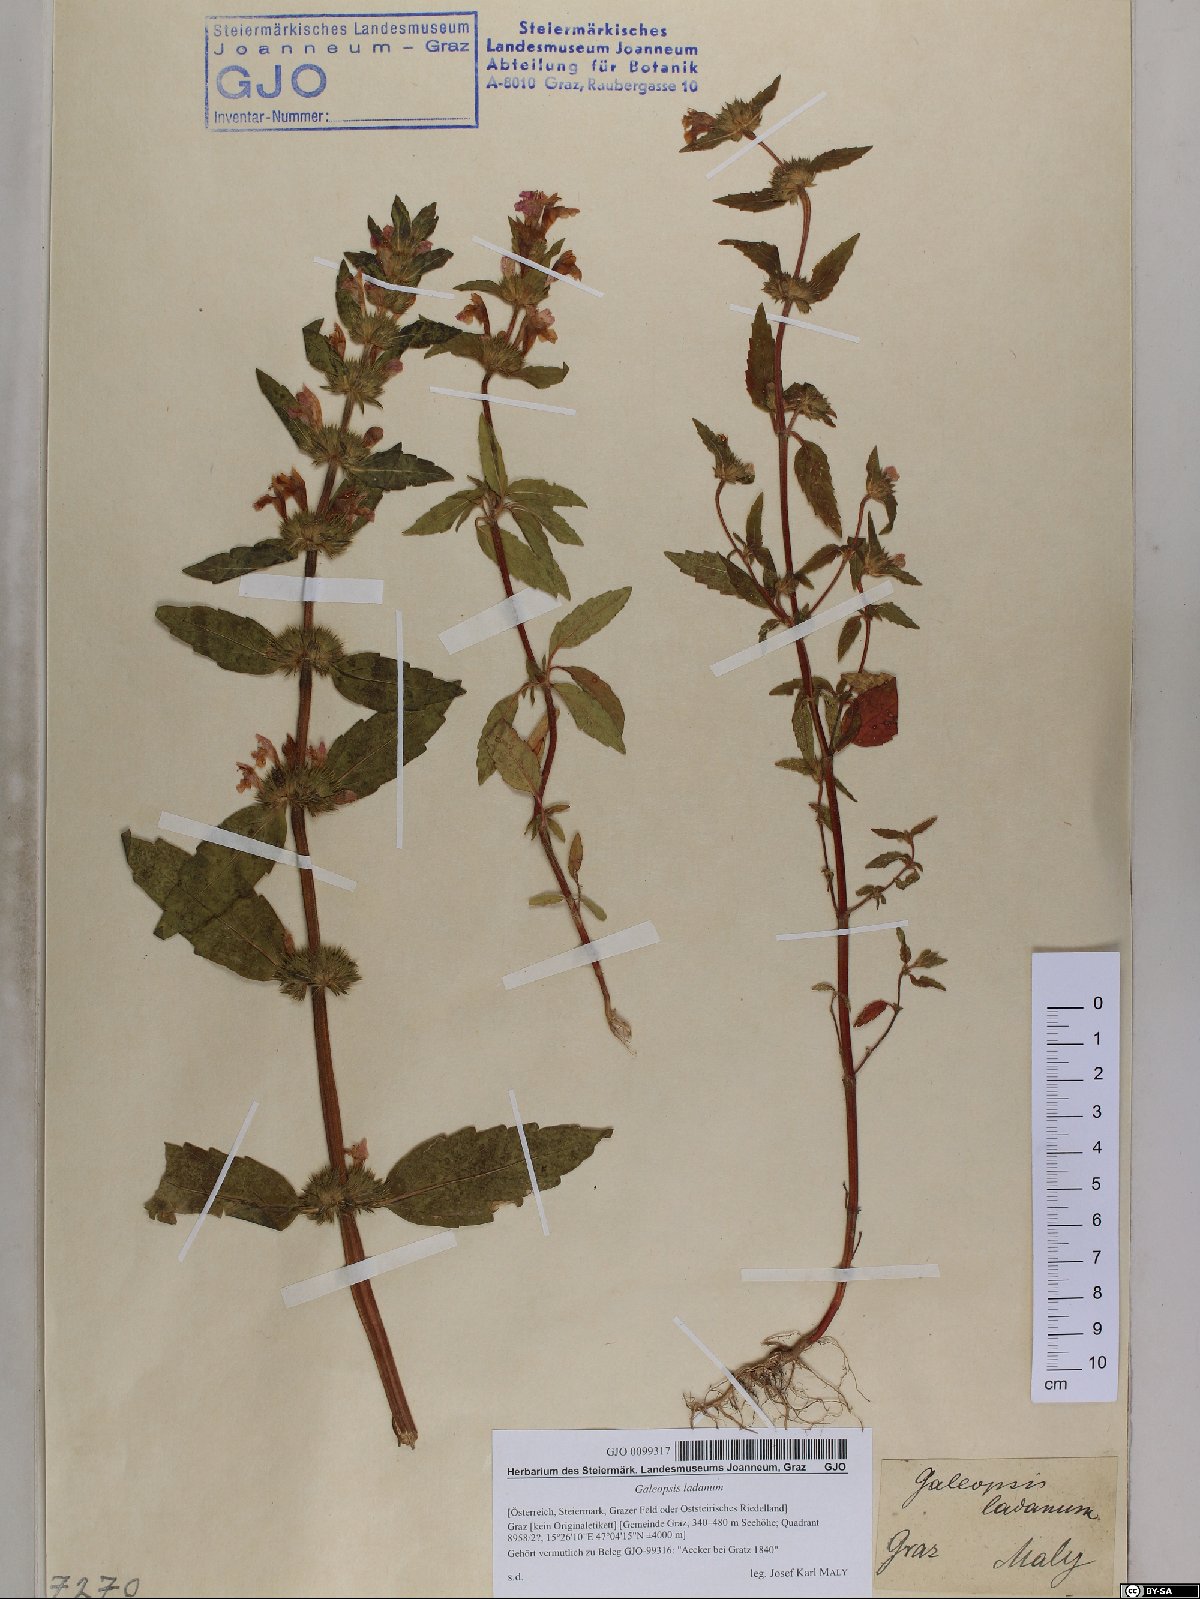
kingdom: Plantae
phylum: Tracheophyta
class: Magnoliopsida
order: Lamiales
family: Lamiaceae
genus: Galeopsis
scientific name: Galeopsis ladanum
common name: Broad-leaved hemp-nettle
